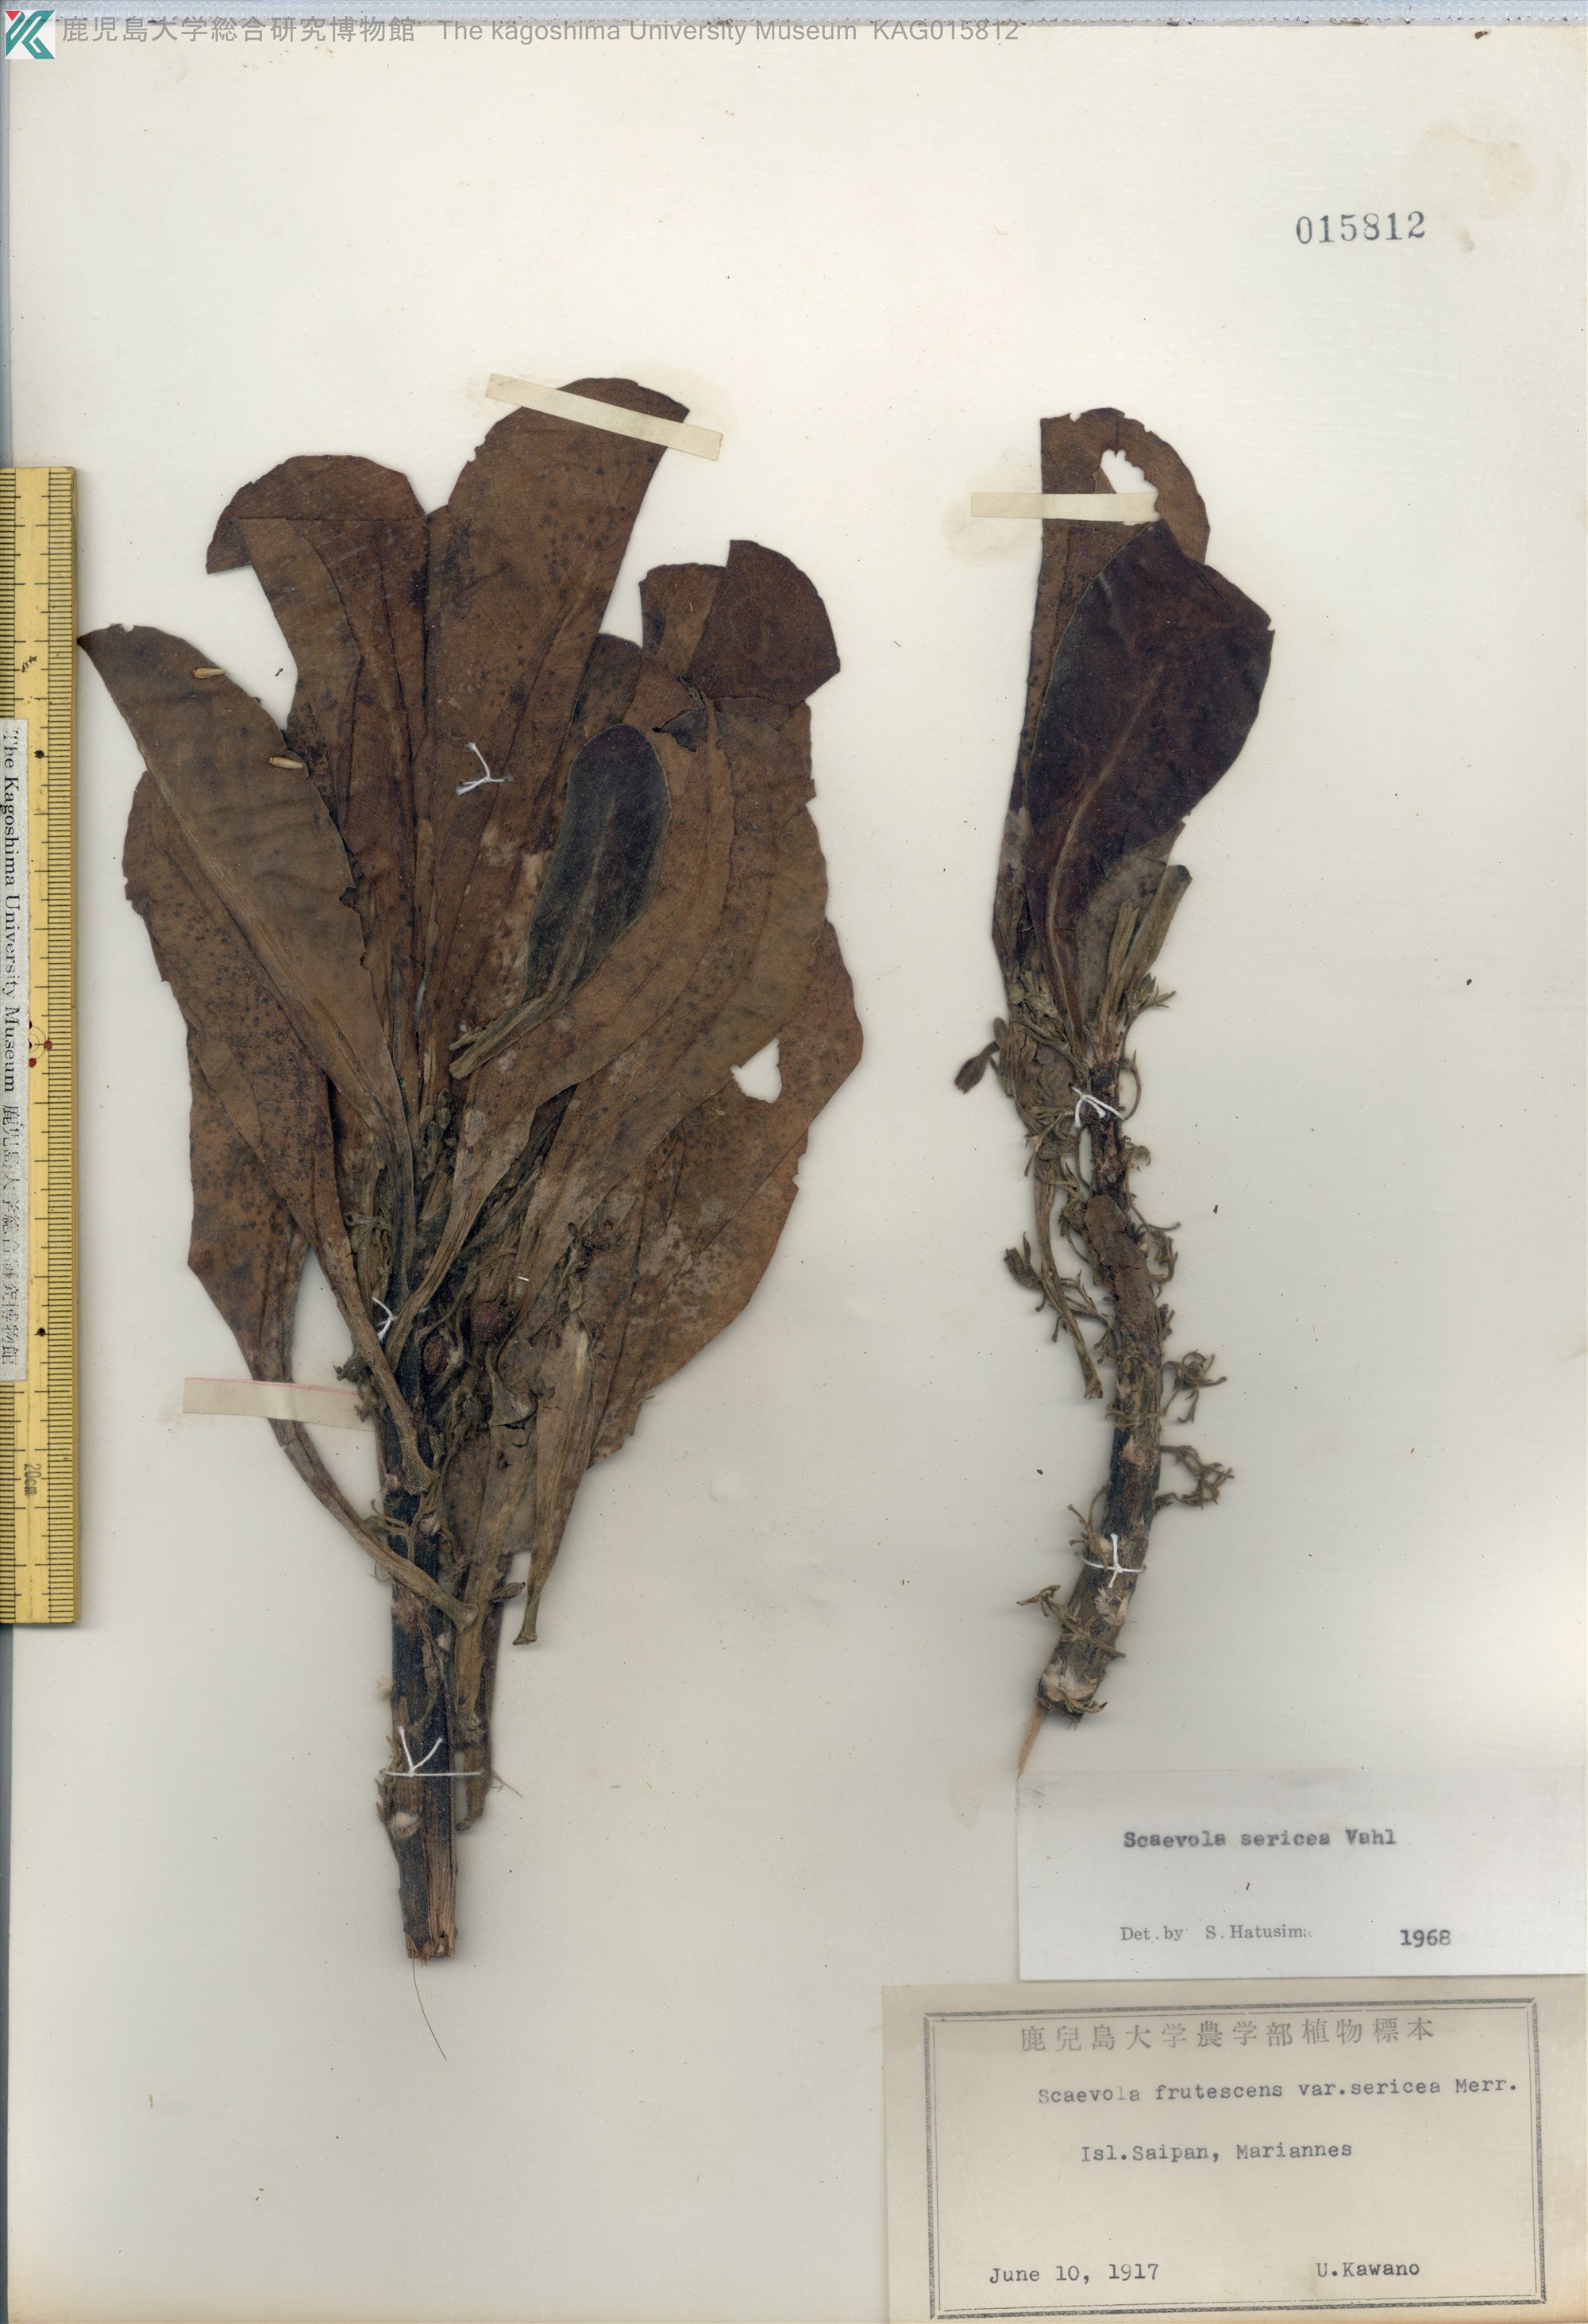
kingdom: Plantae
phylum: Tracheophyta
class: Magnoliopsida
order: Asterales
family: Goodeniaceae
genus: Scaevola
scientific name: Scaevola taccada
